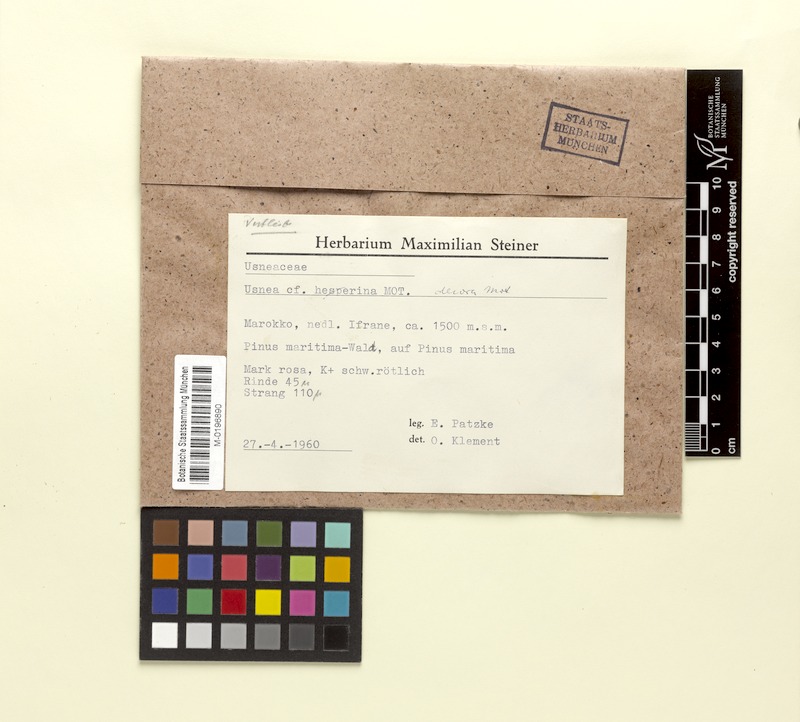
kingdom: Fungi
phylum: Ascomycota
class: Lecanoromycetes
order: Lecanorales
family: Parmeliaceae
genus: Usnea
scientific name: Usnea plicata
